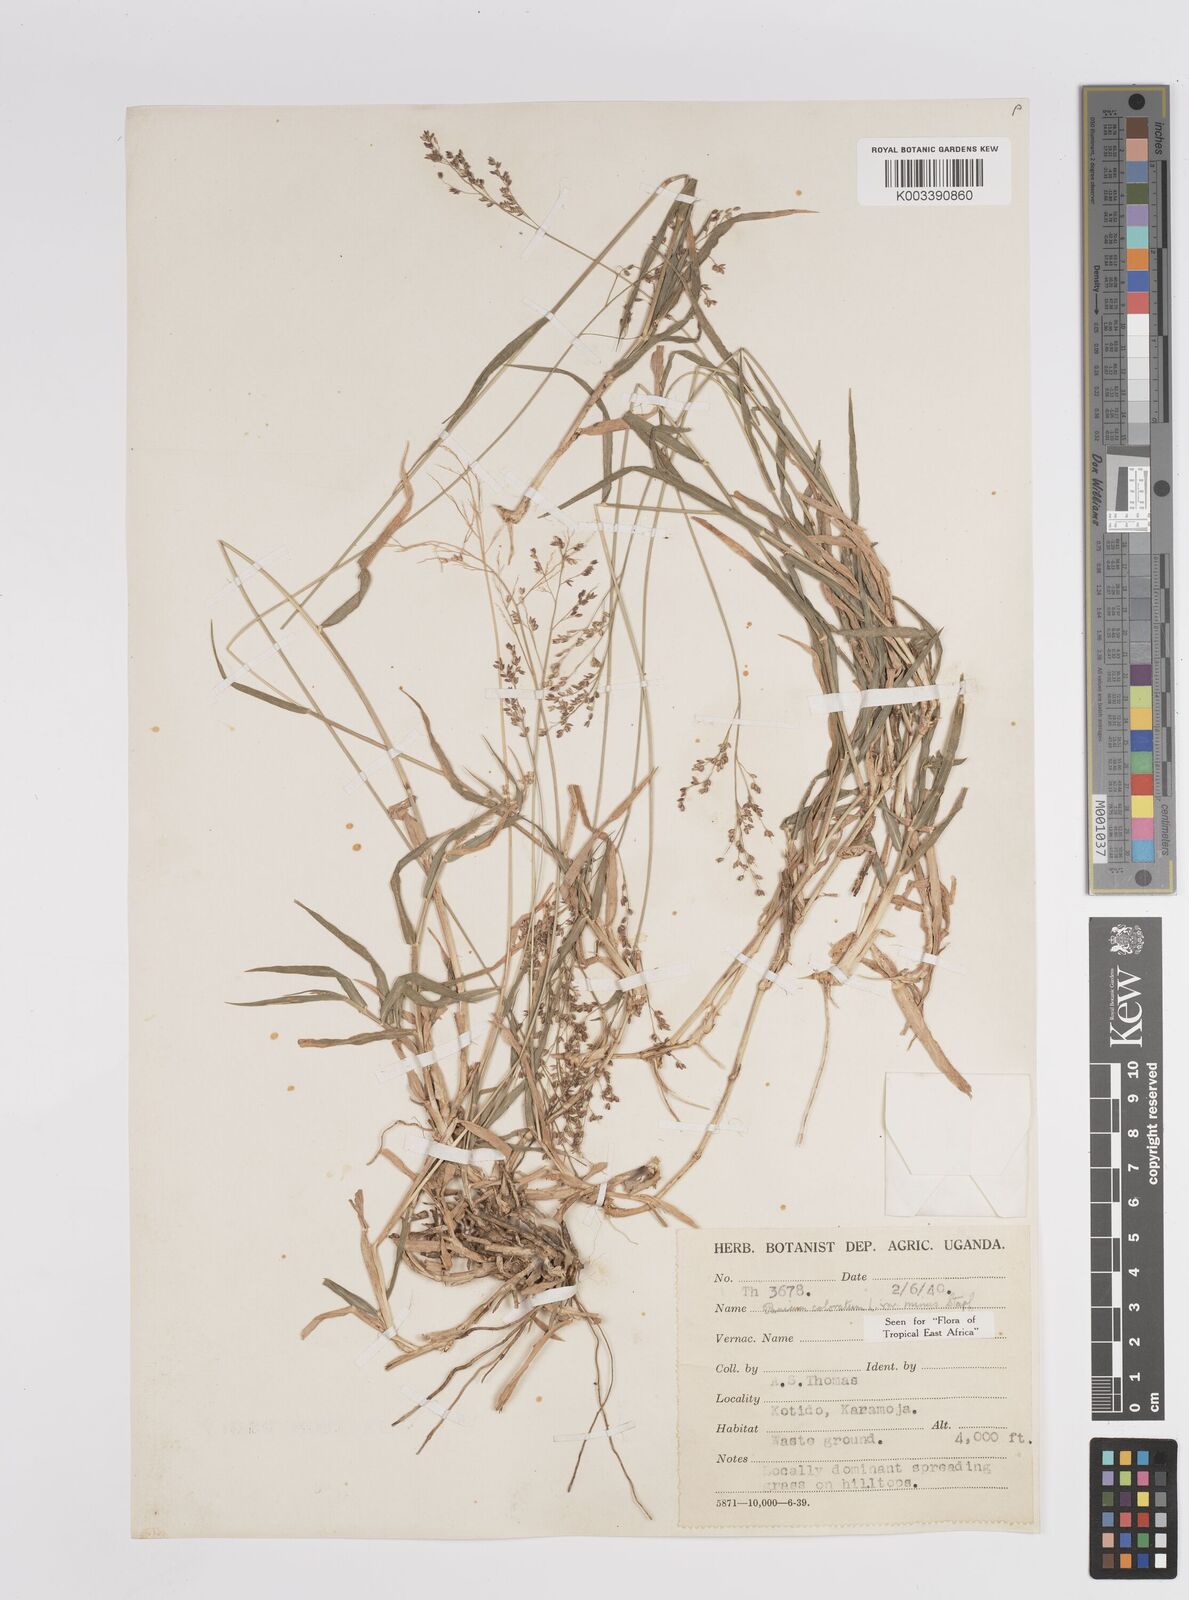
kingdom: Plantae
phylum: Tracheophyta
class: Liliopsida
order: Poales
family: Poaceae
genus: Panicum
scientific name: Panicum coloratum
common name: Kleingrass
